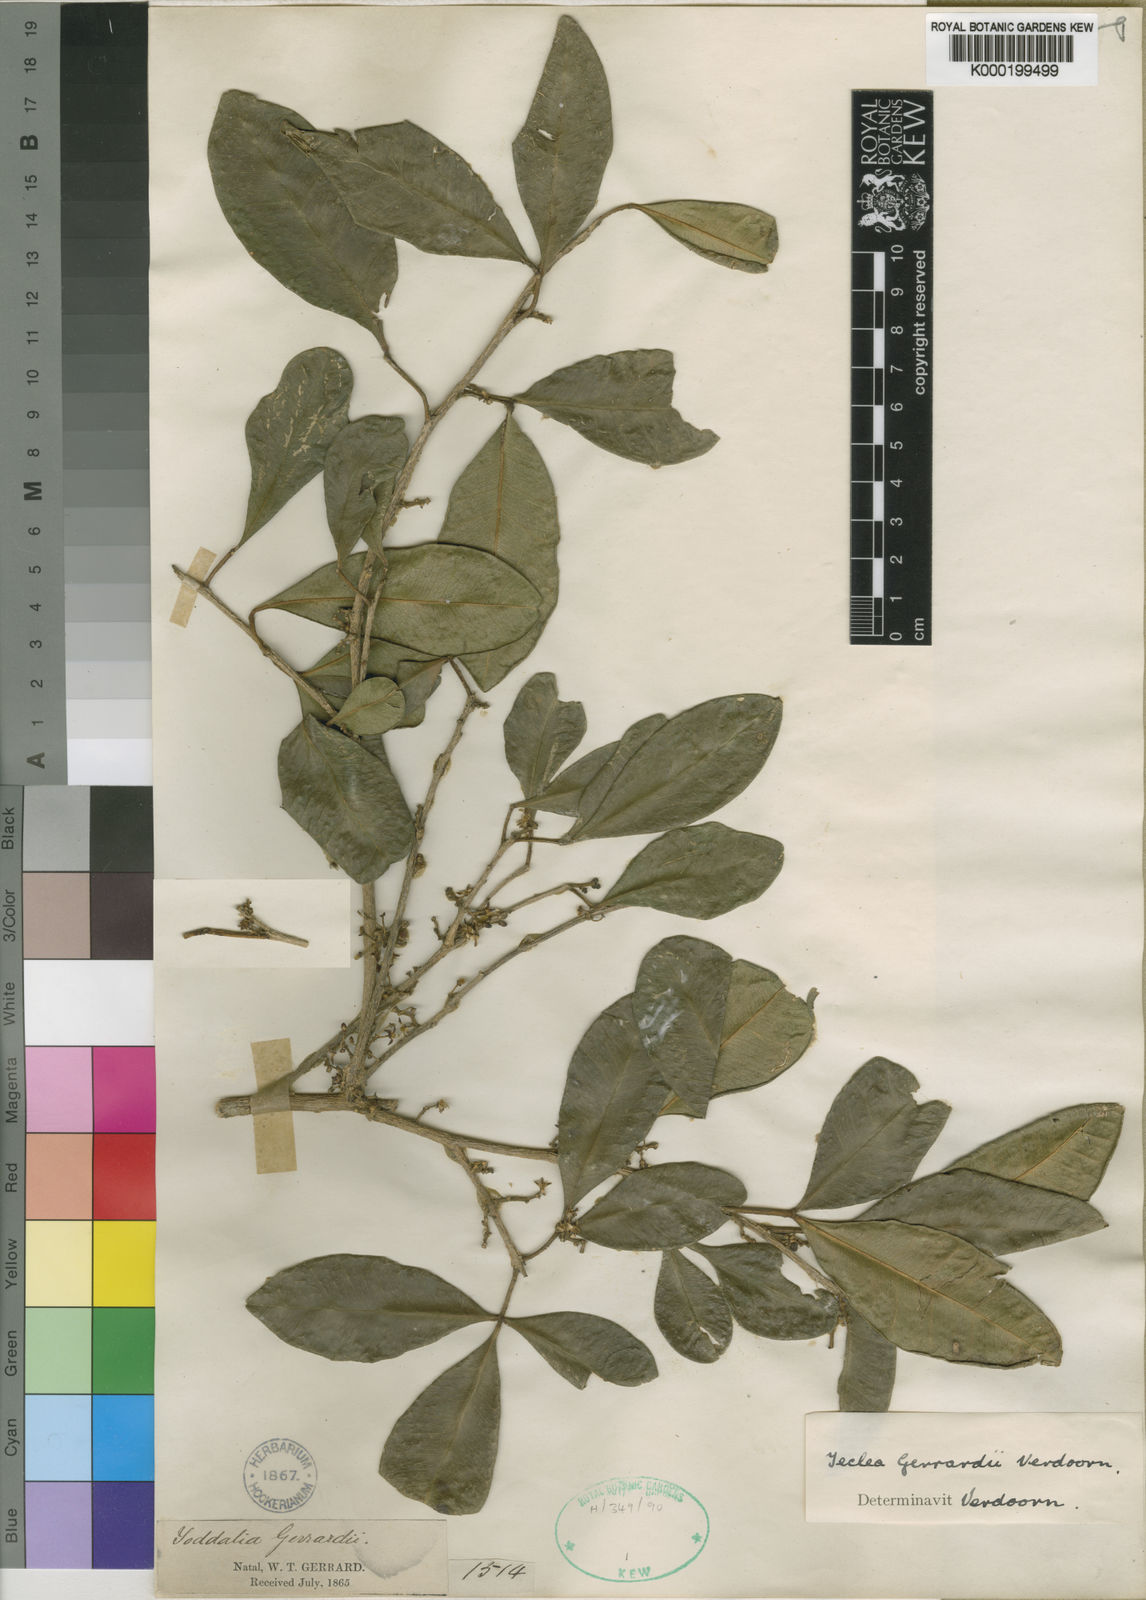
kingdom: Plantae
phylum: Tracheophyta
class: Magnoliopsida
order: Sapindales
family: Rutaceae
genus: Vepris
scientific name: Vepris
